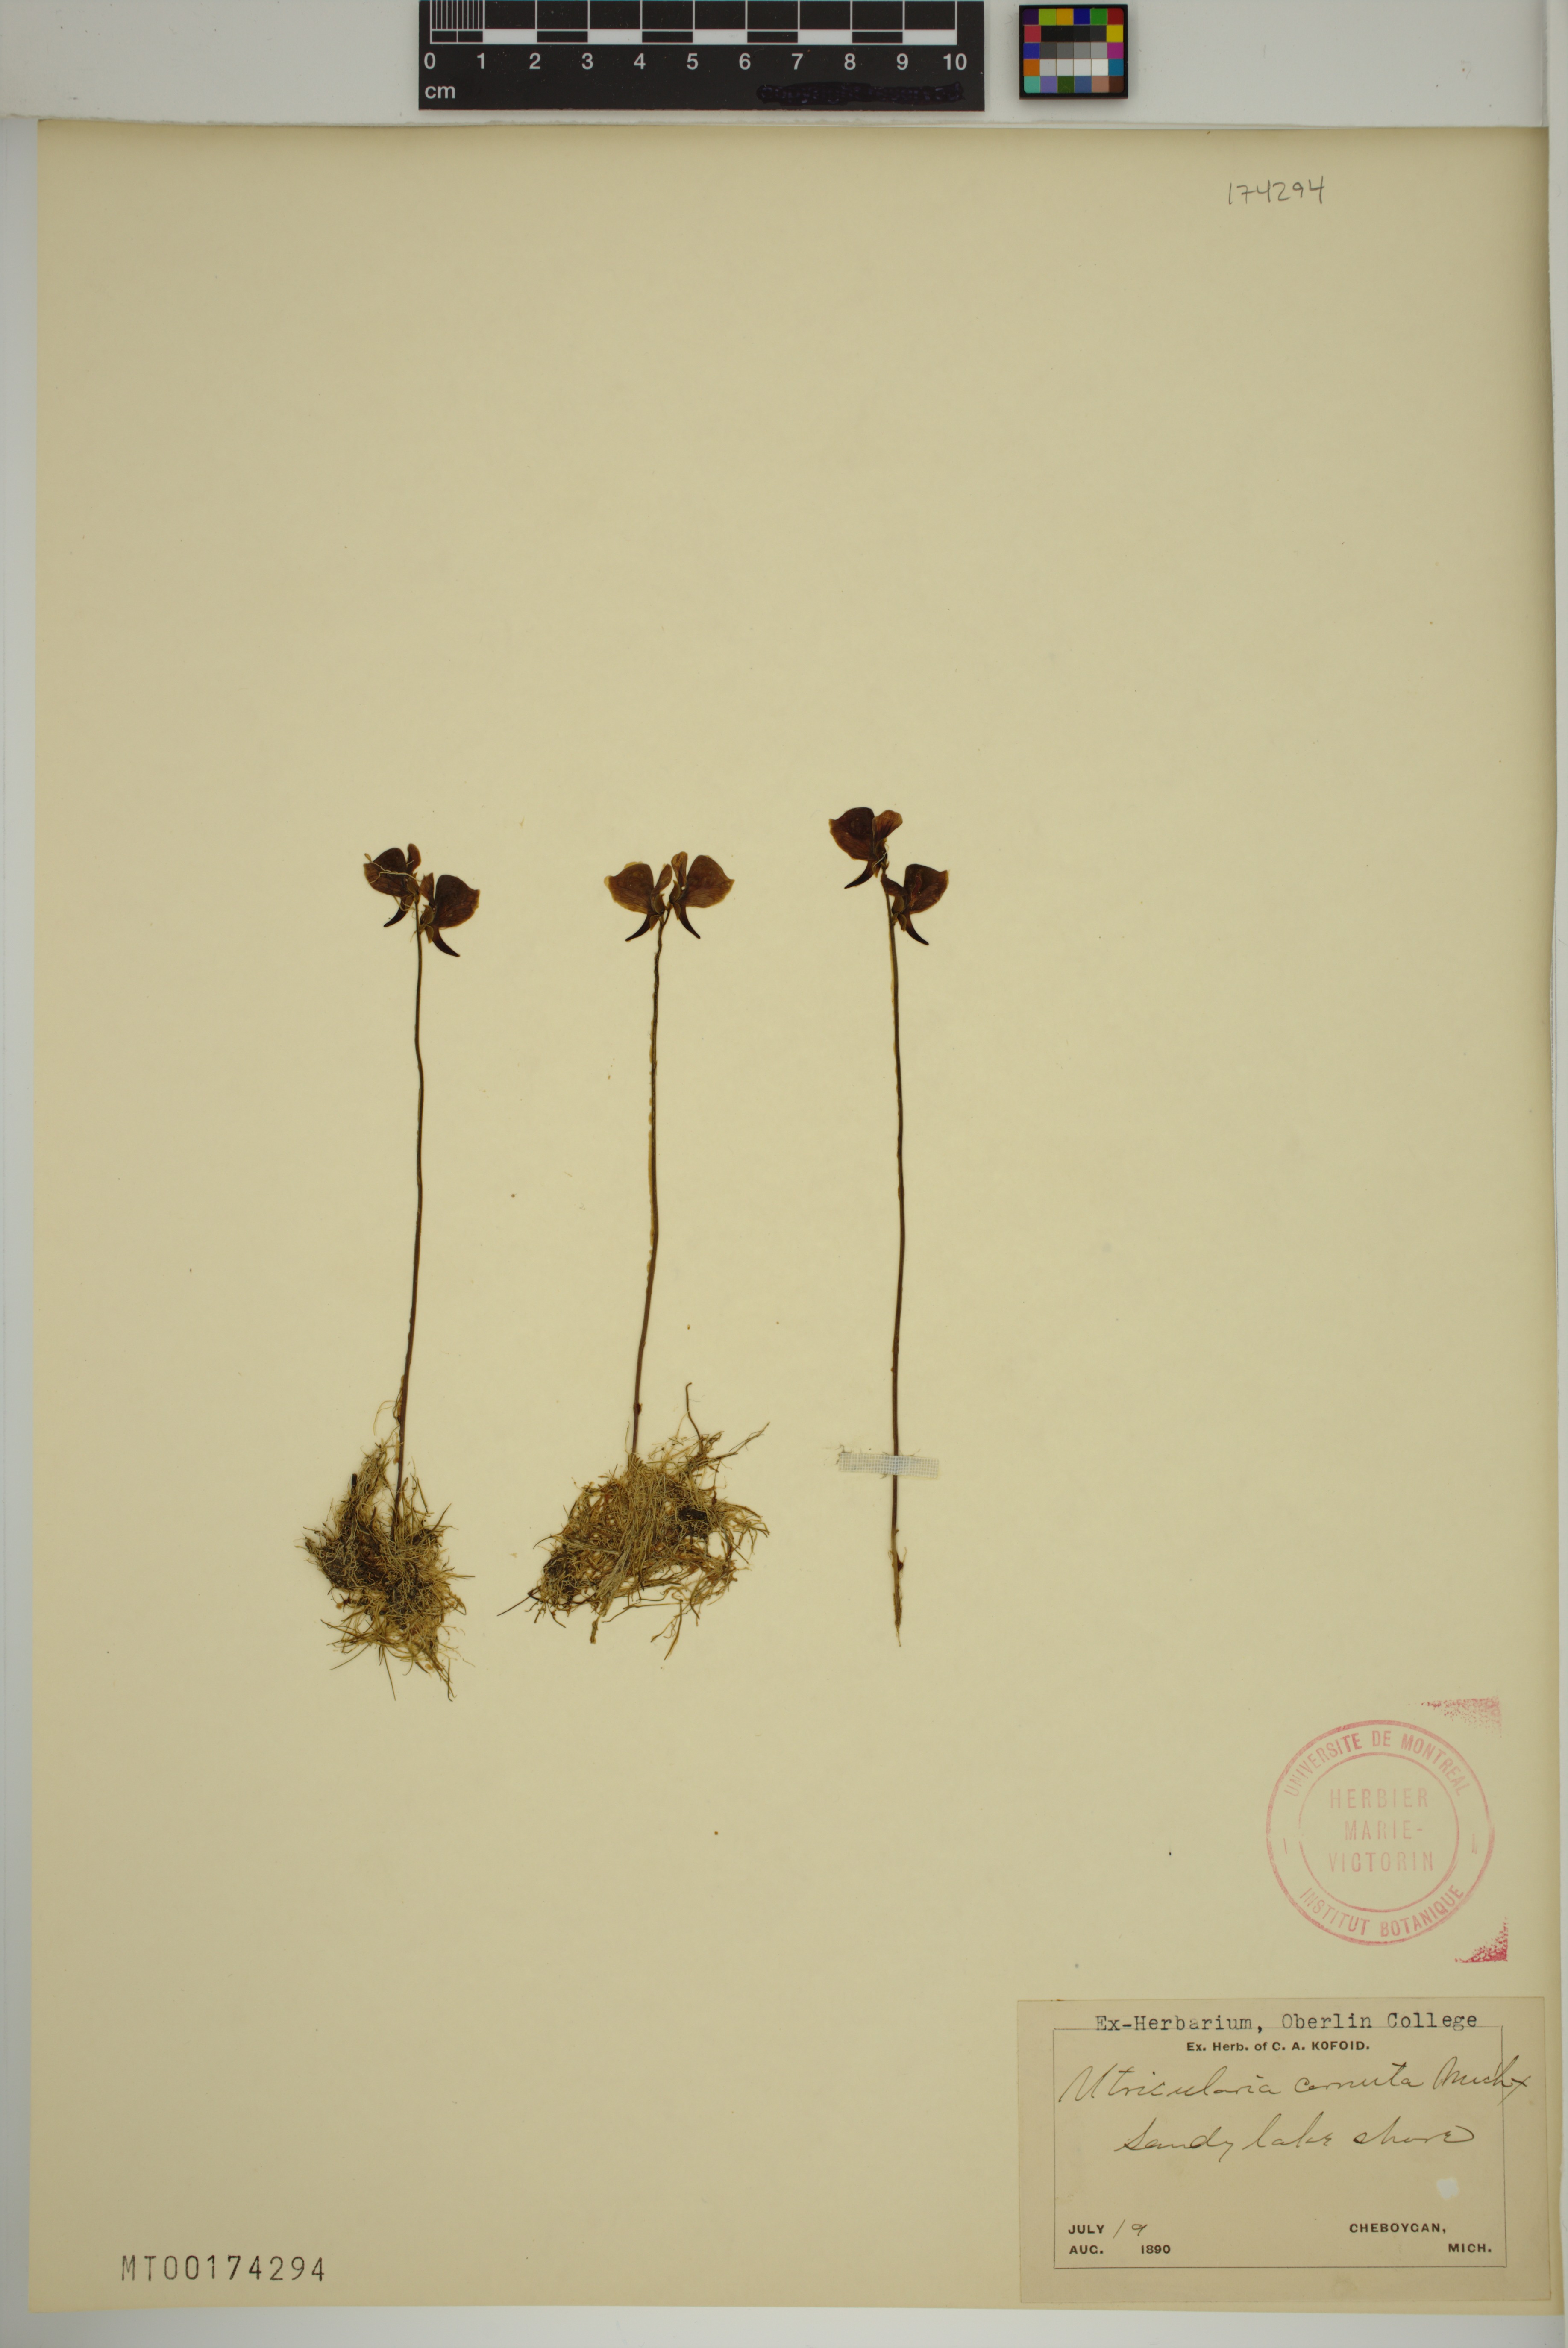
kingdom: Plantae
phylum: Tracheophyta
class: Magnoliopsida
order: Lamiales
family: Lentibulariaceae
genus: Utricularia
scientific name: Utricularia cornuta
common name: Horned bladderwort
